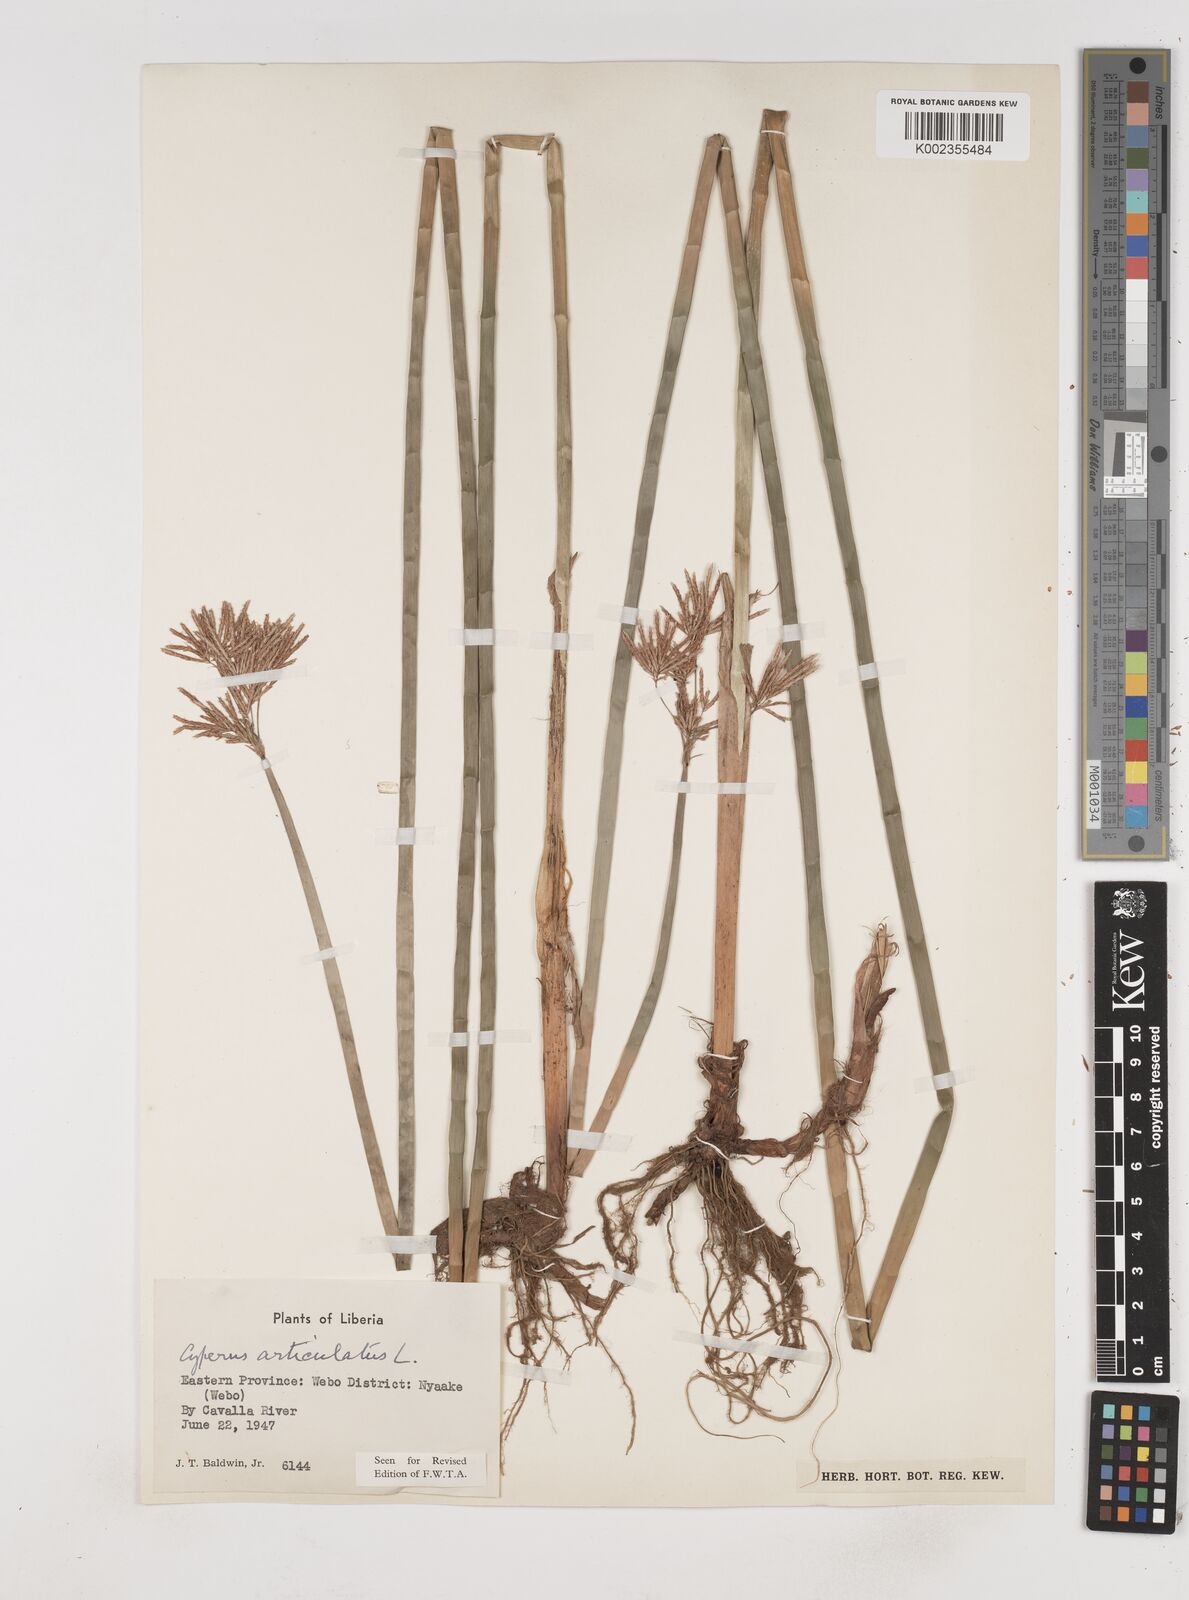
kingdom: Plantae
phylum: Tracheophyta
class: Liliopsida
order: Poales
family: Cyperaceae
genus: Cyperus
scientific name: Cyperus articulatus
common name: Jointed flatsedge
